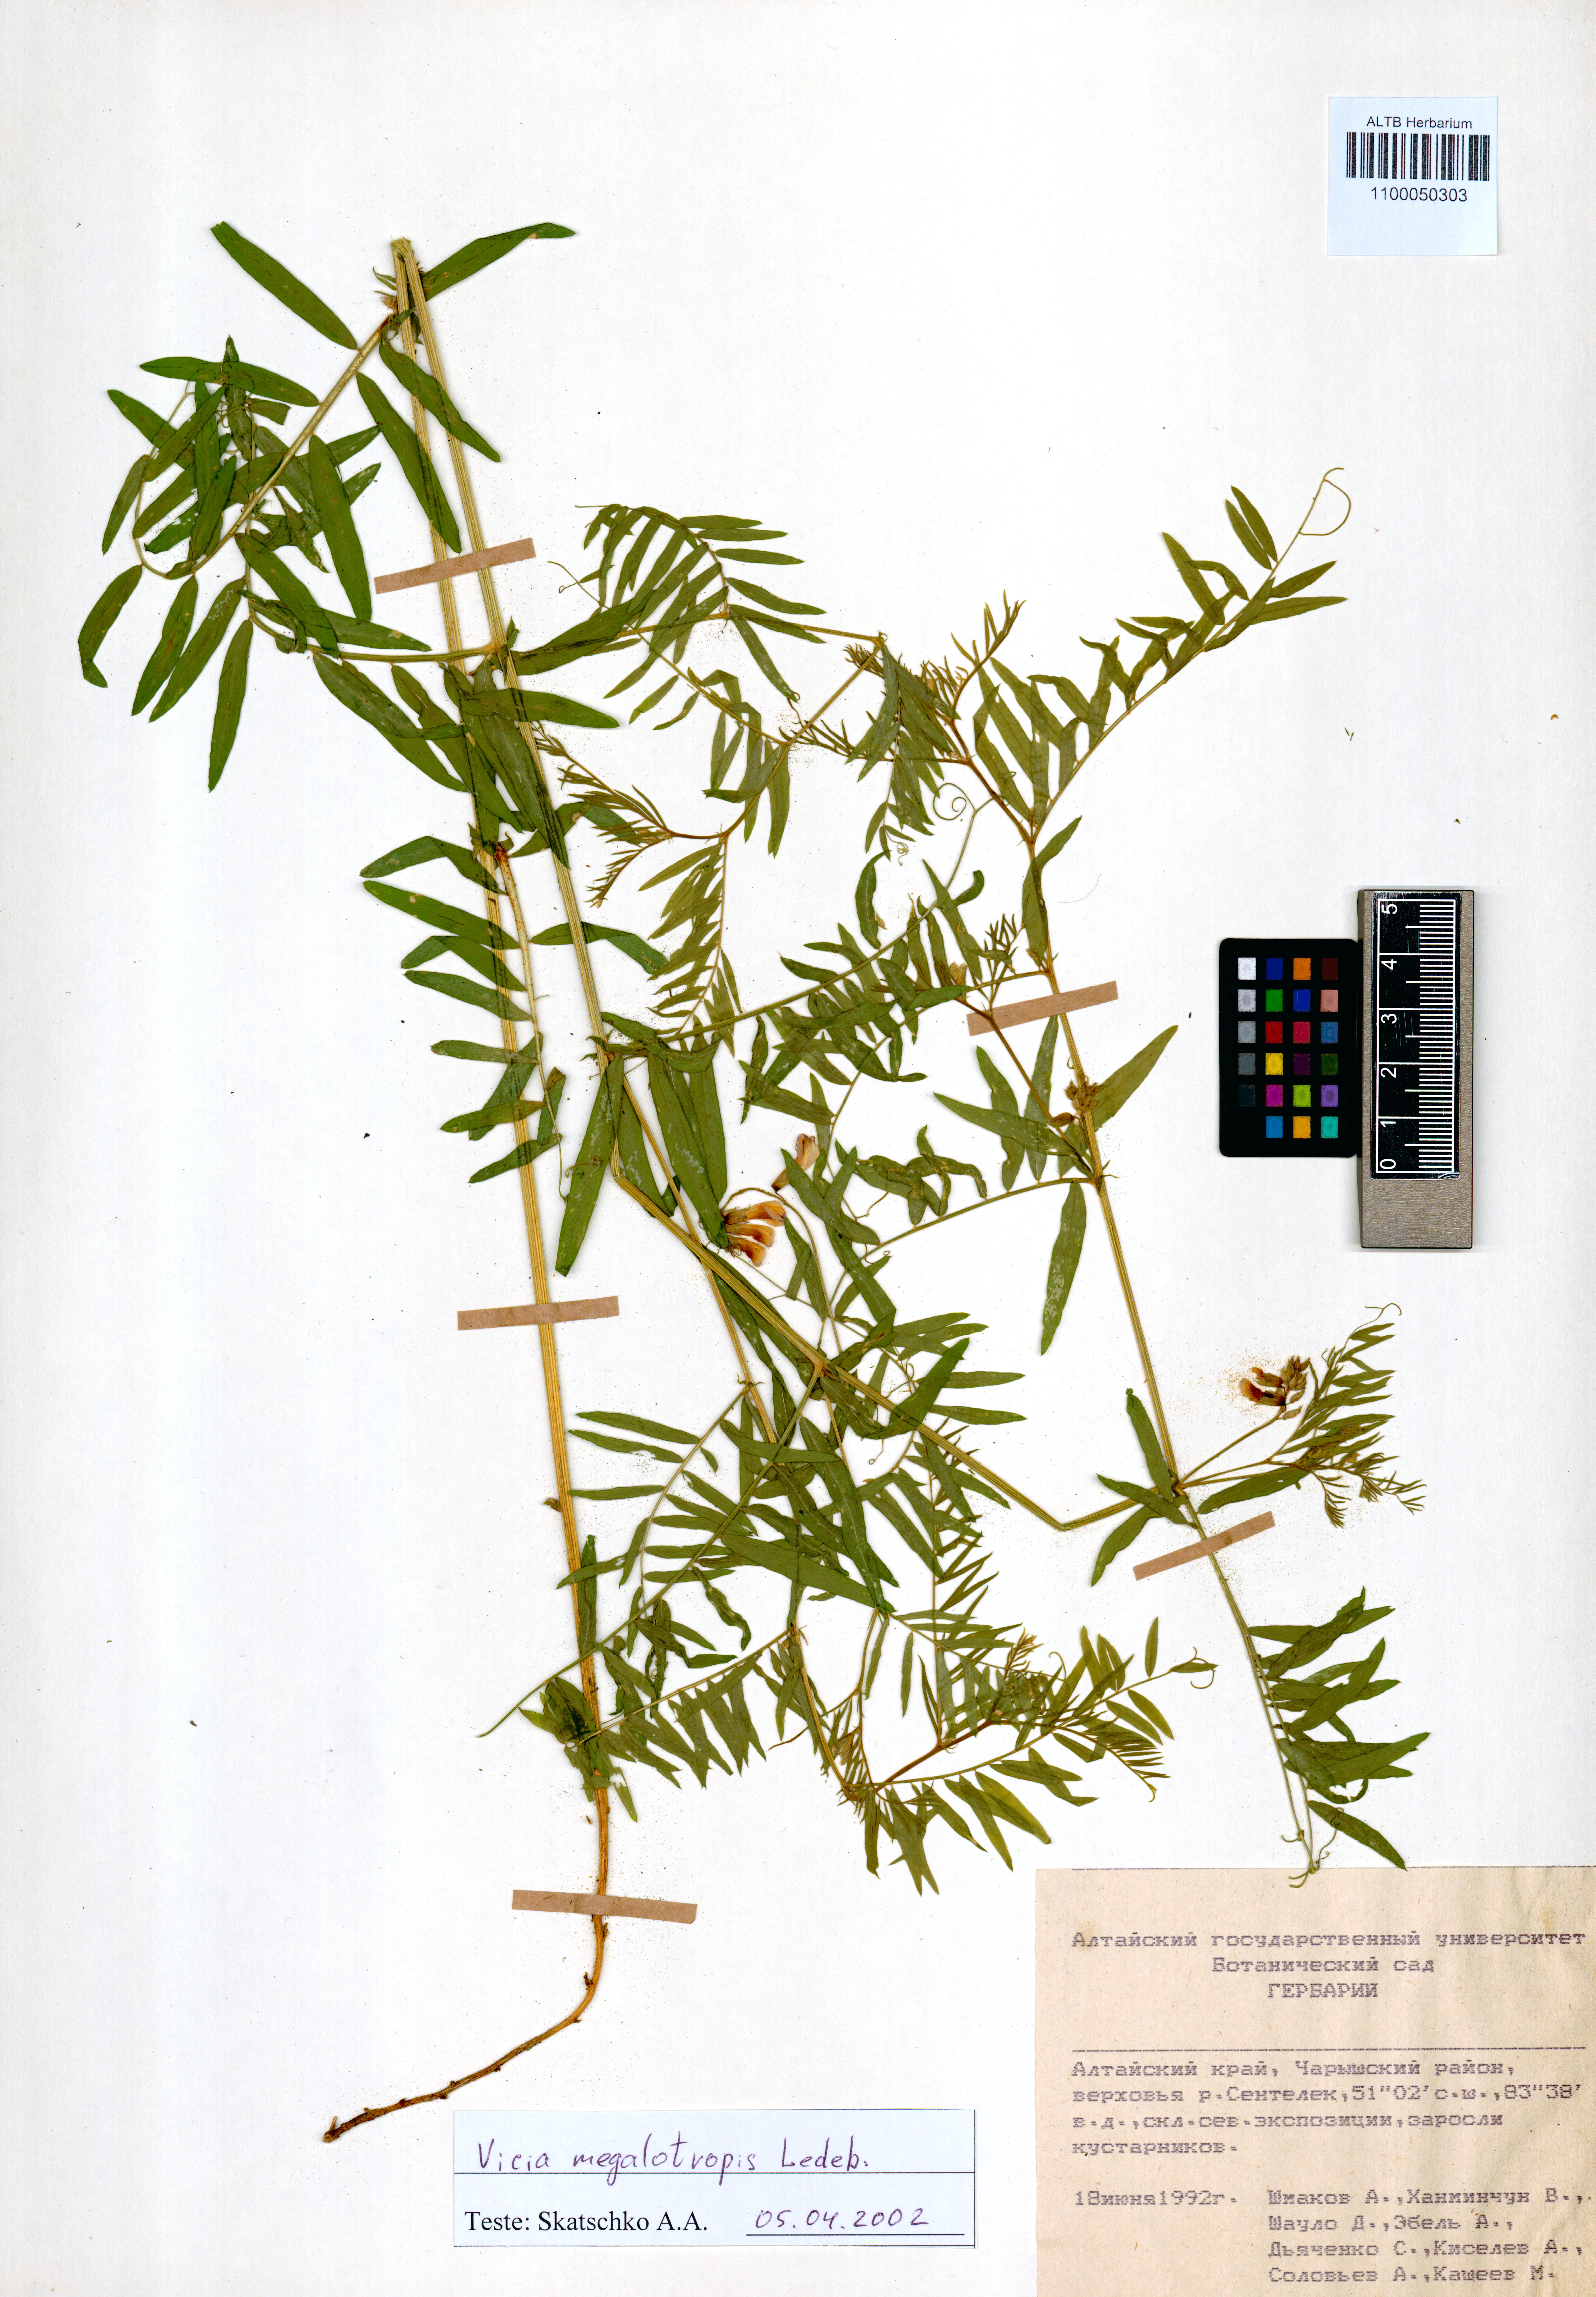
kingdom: Plantae
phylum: Tracheophyta
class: Magnoliopsida
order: Fabales
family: Fabaceae
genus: Vicia
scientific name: Vicia megalotropis
